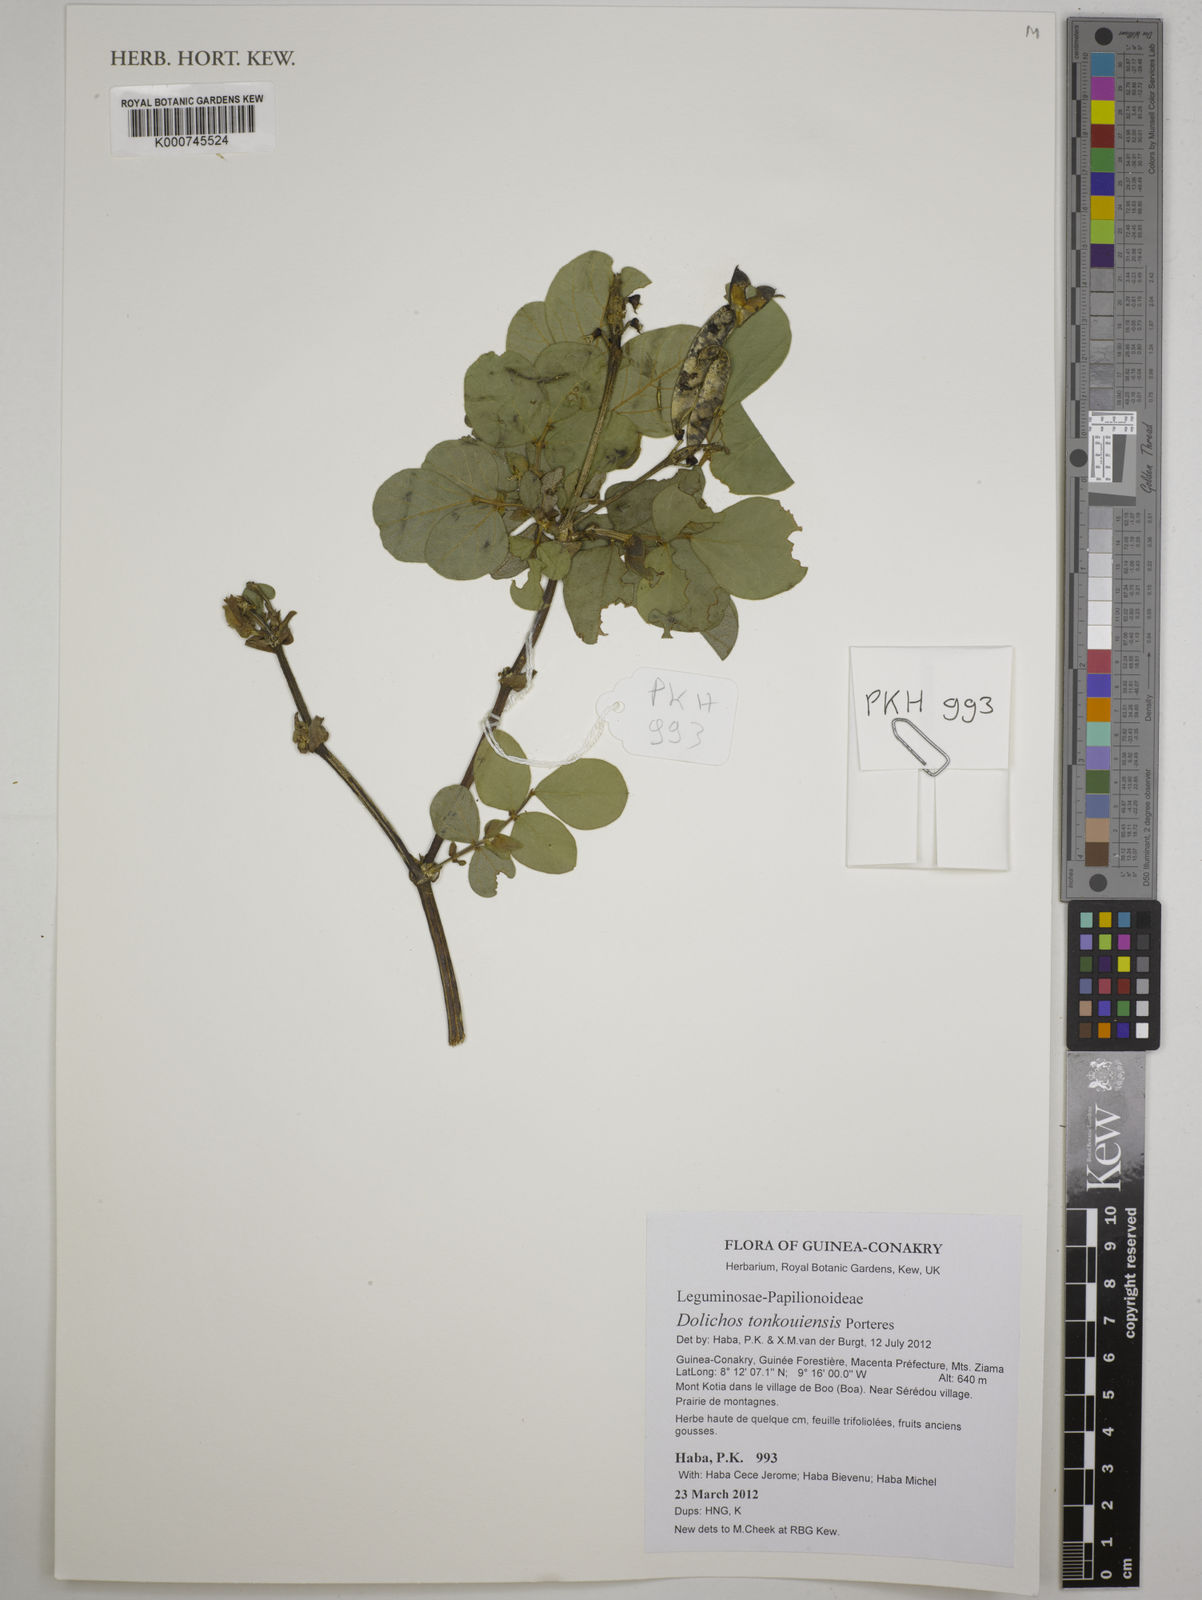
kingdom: Plantae
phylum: Tracheophyta
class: Magnoliopsida
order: Fabales
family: Fabaceae
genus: Dolichos
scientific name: Dolichos tonkouiensis
